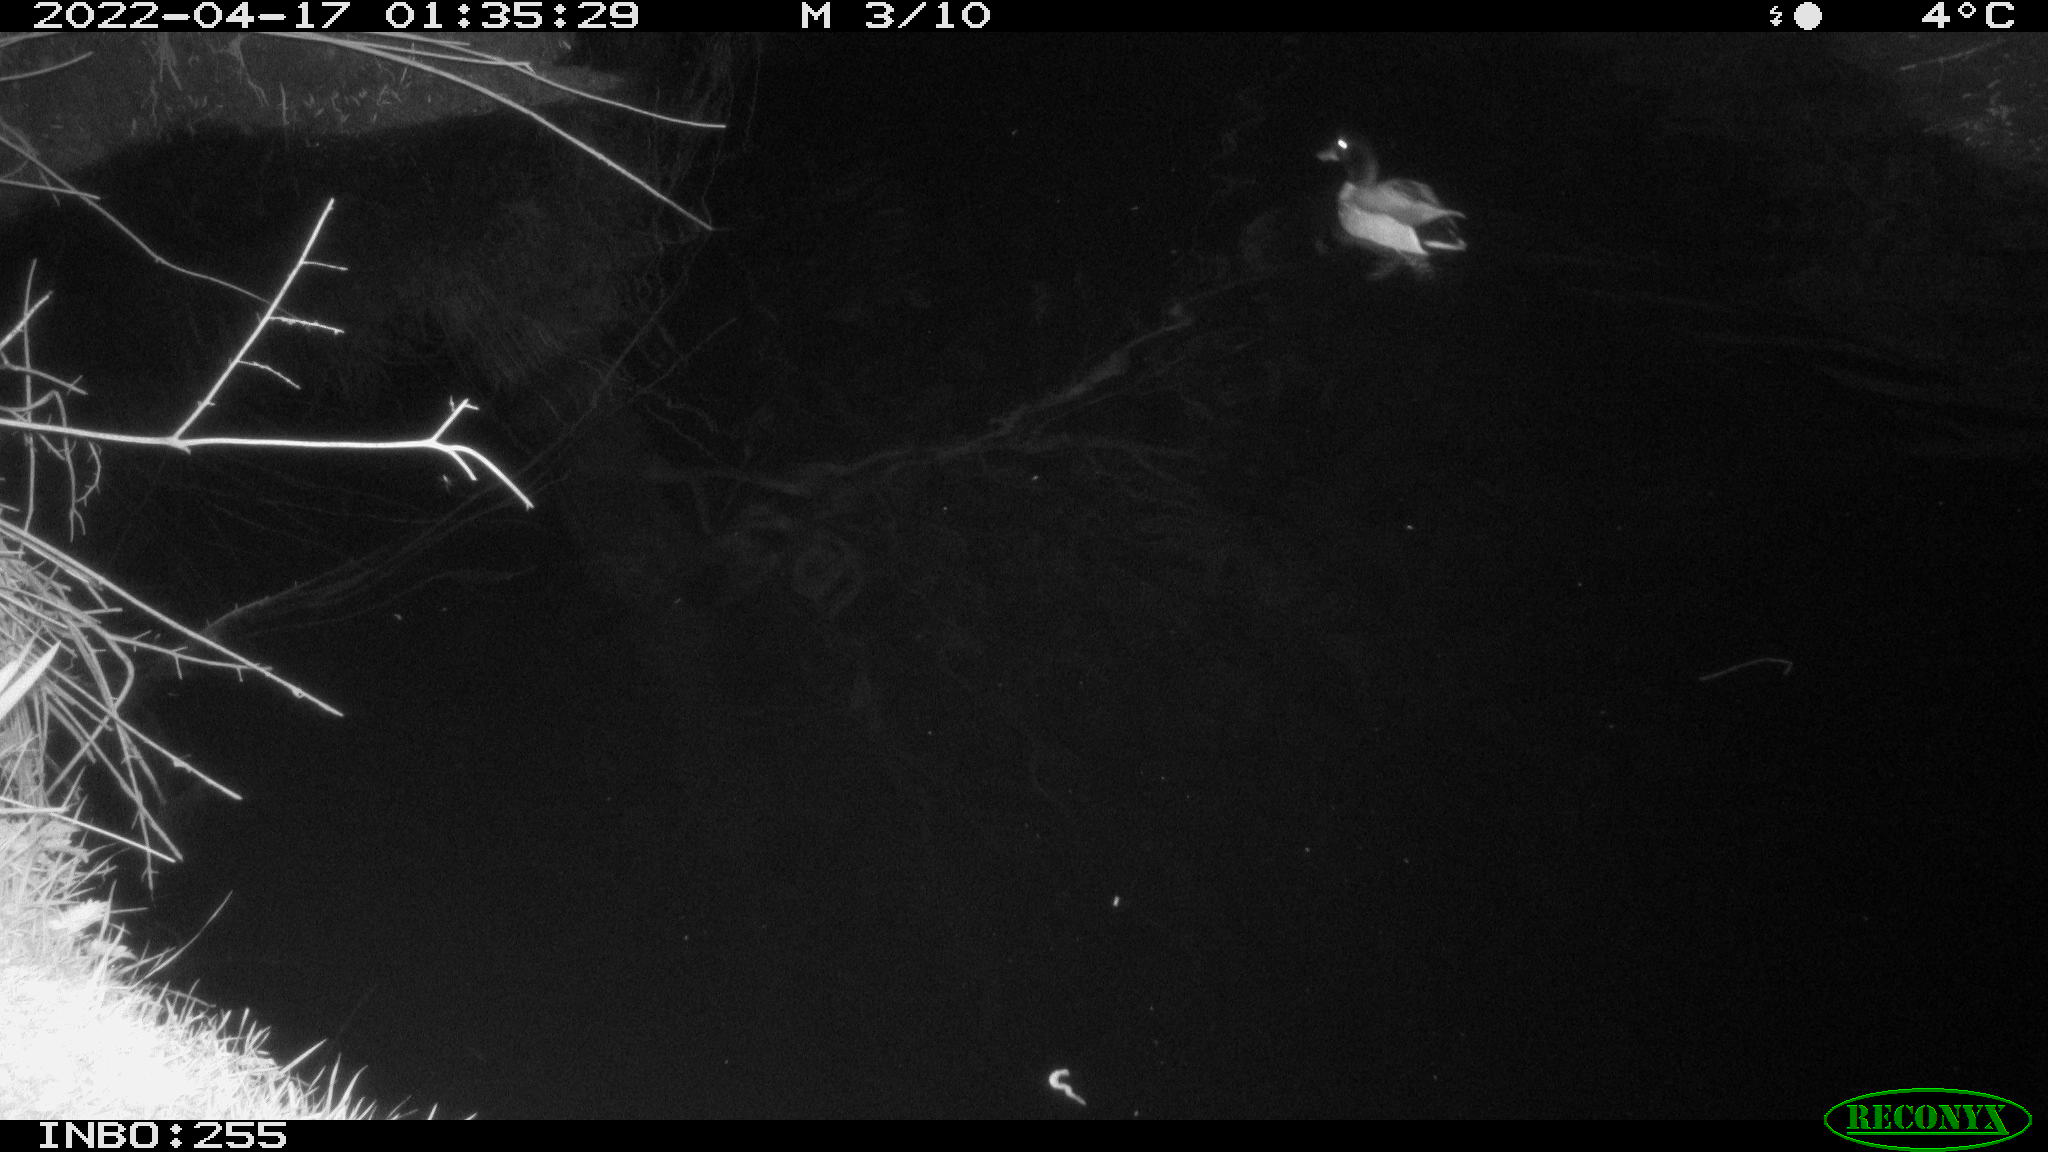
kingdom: Animalia
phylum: Chordata
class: Aves
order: Anseriformes
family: Anatidae
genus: Anas
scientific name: Anas platyrhynchos
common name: Mallard
